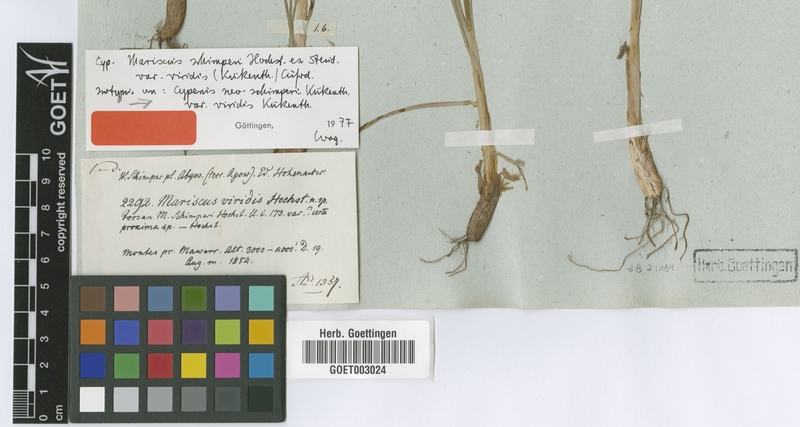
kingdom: Plantae
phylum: Tracheophyta
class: Liliopsida
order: Poales
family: Cyperaceae
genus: Cyperus
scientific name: Cyperus cruentus
